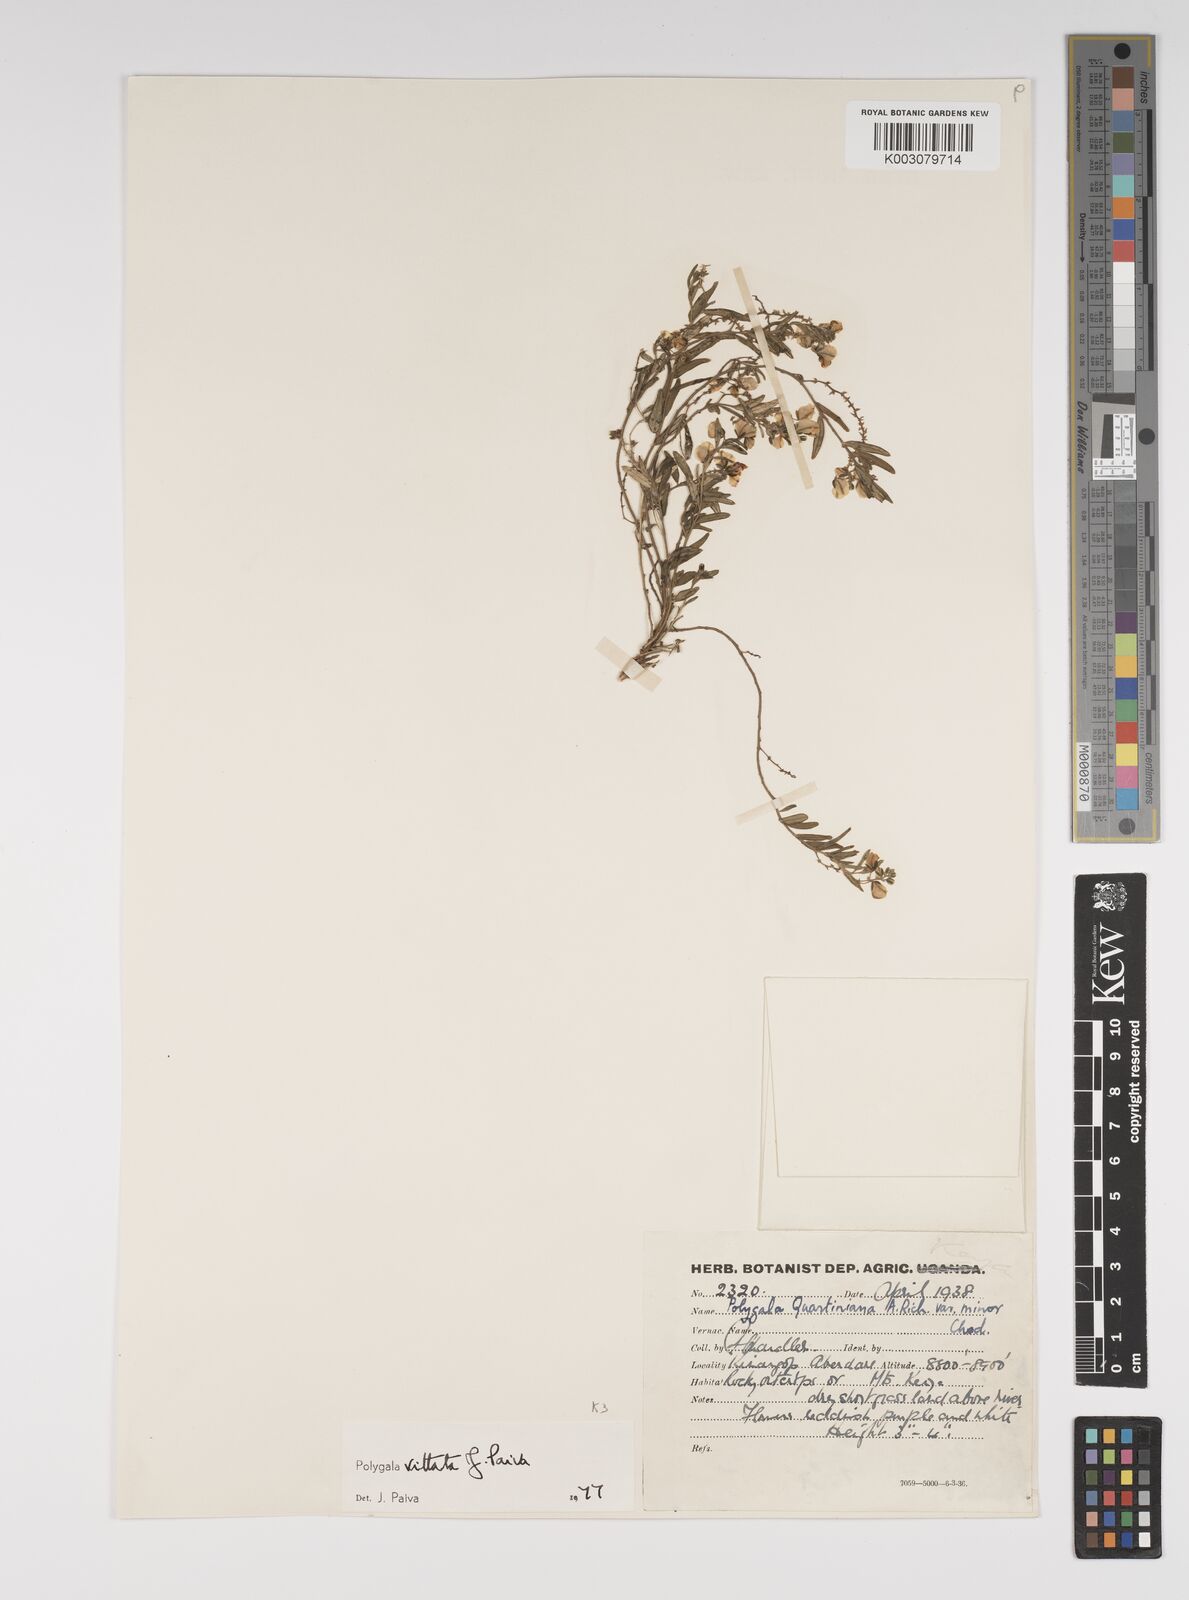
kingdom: Plantae
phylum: Tracheophyta
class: Magnoliopsida
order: Fabales
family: Polygalaceae
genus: Polygala
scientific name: Polygala vittata
